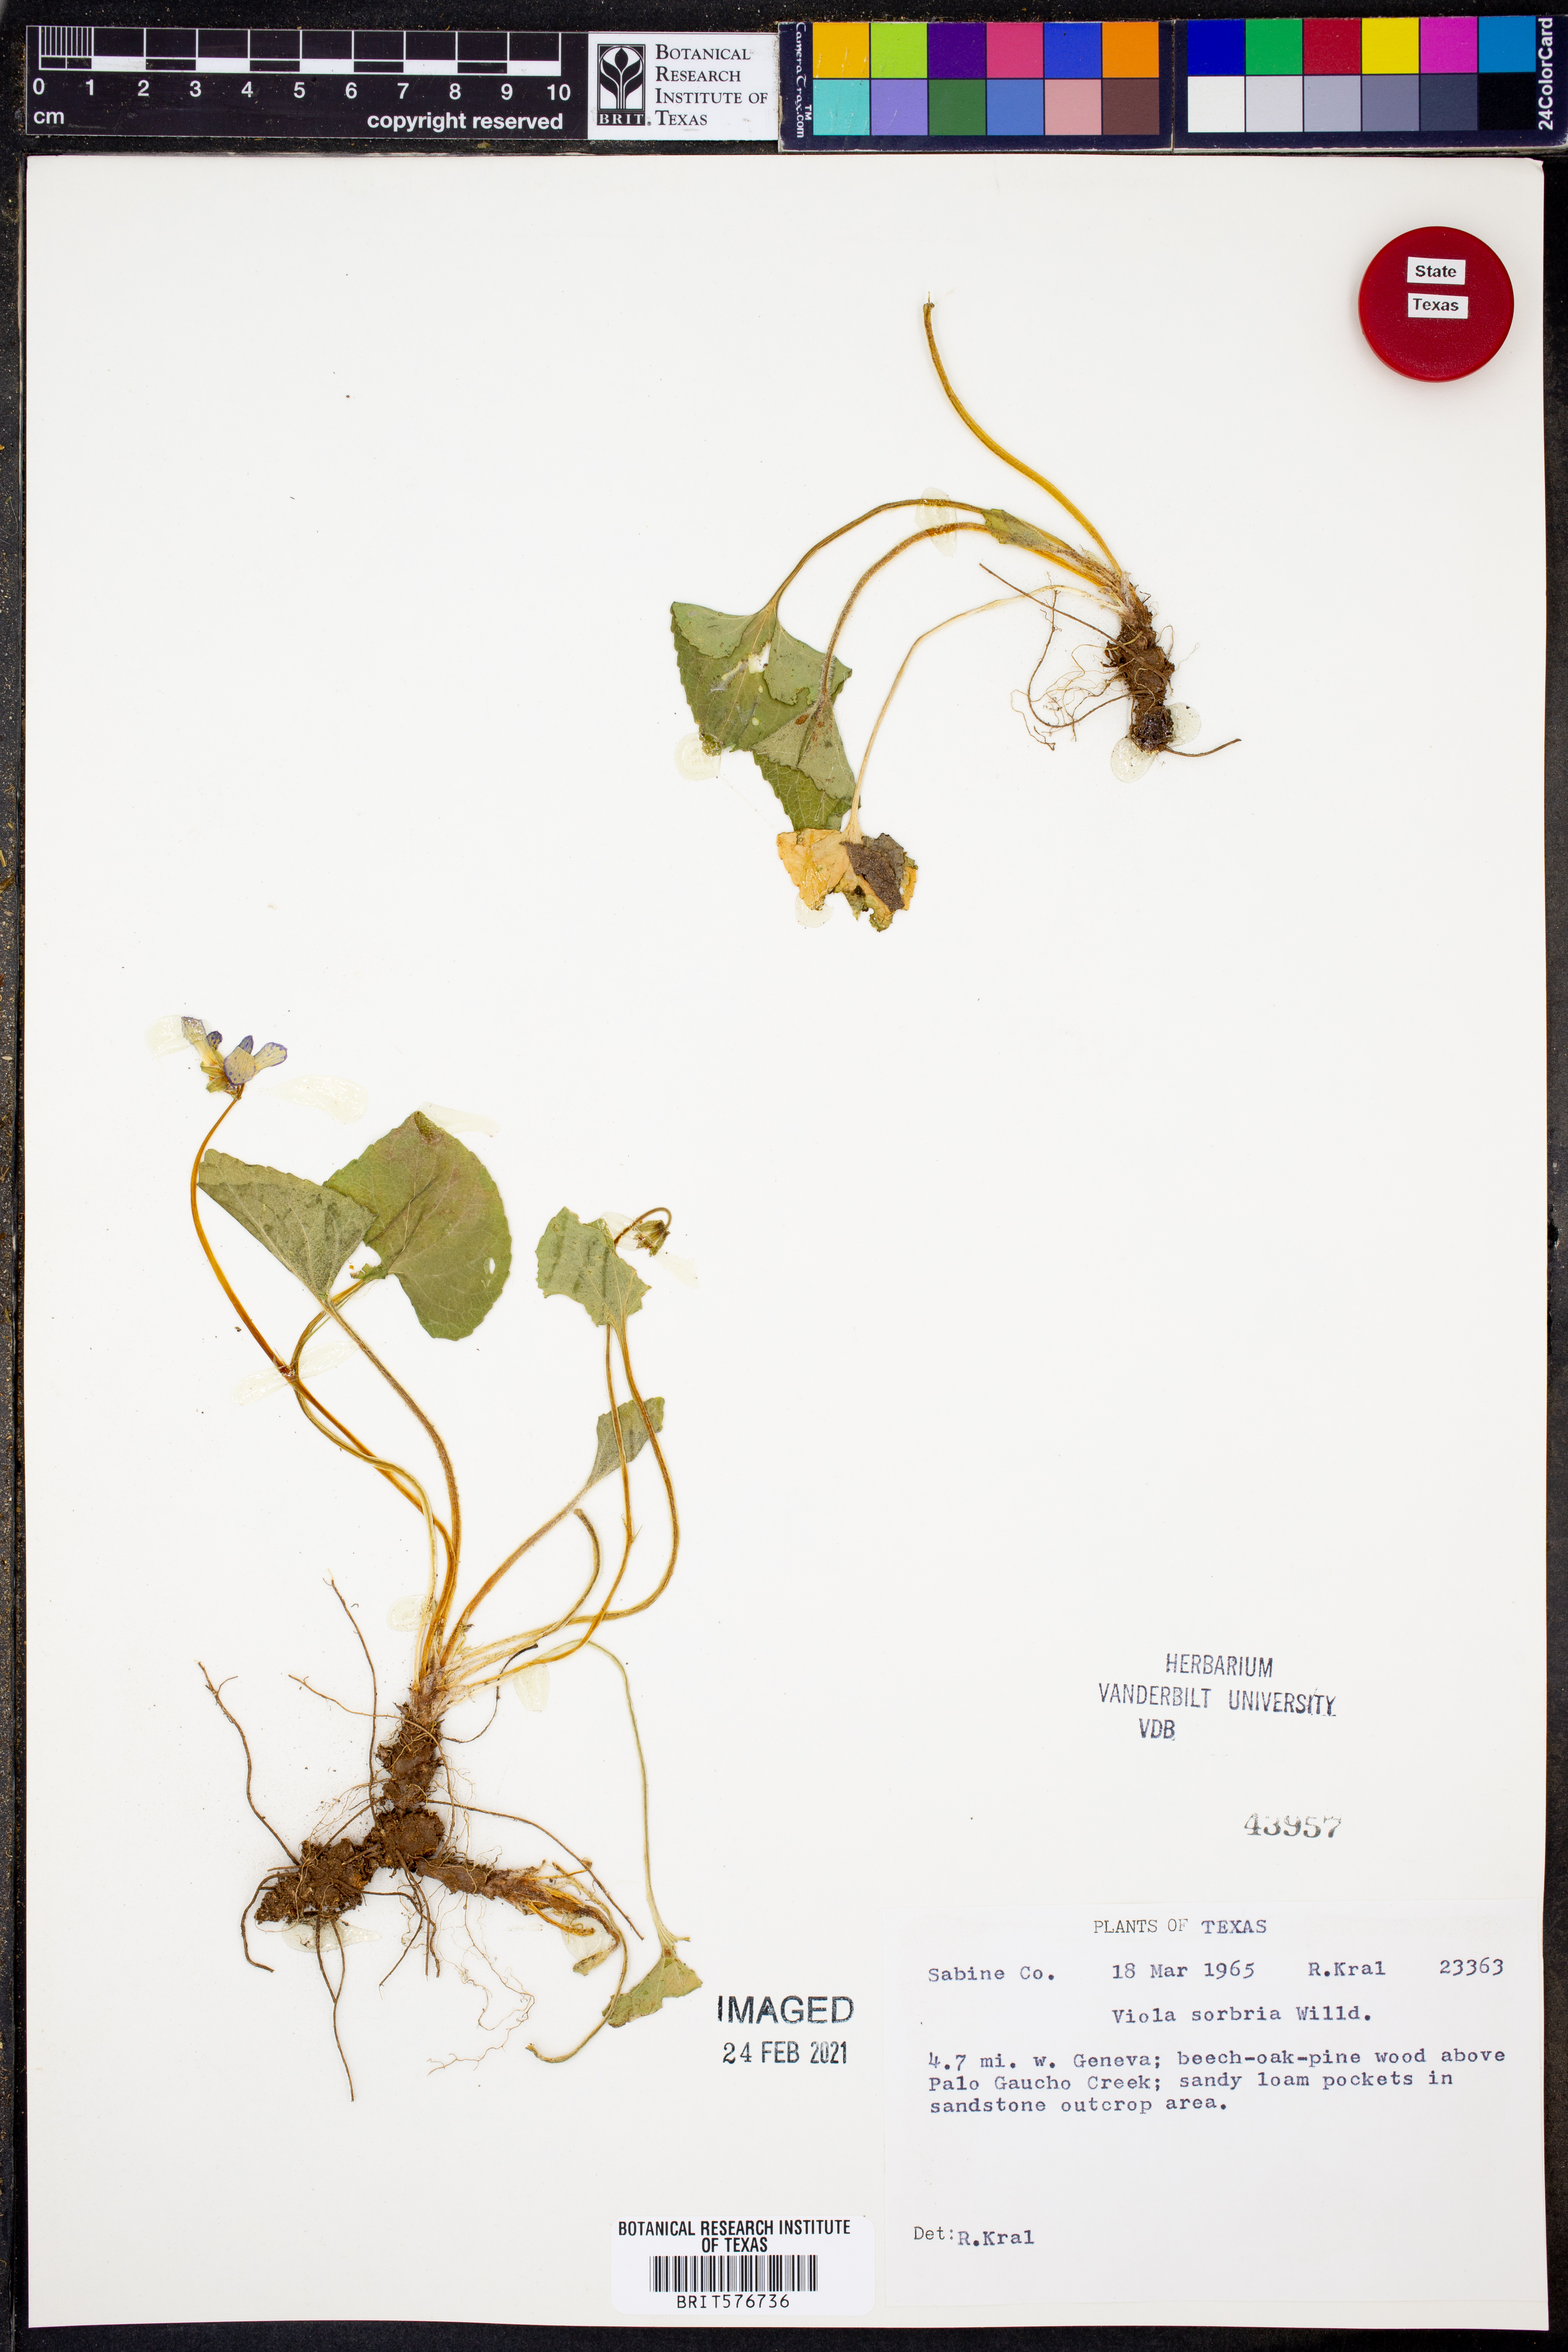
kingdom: Plantae
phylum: Tracheophyta
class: Magnoliopsida
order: Malpighiales
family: Violaceae
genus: Viola
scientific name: Viola sororia
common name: Dooryard violet
